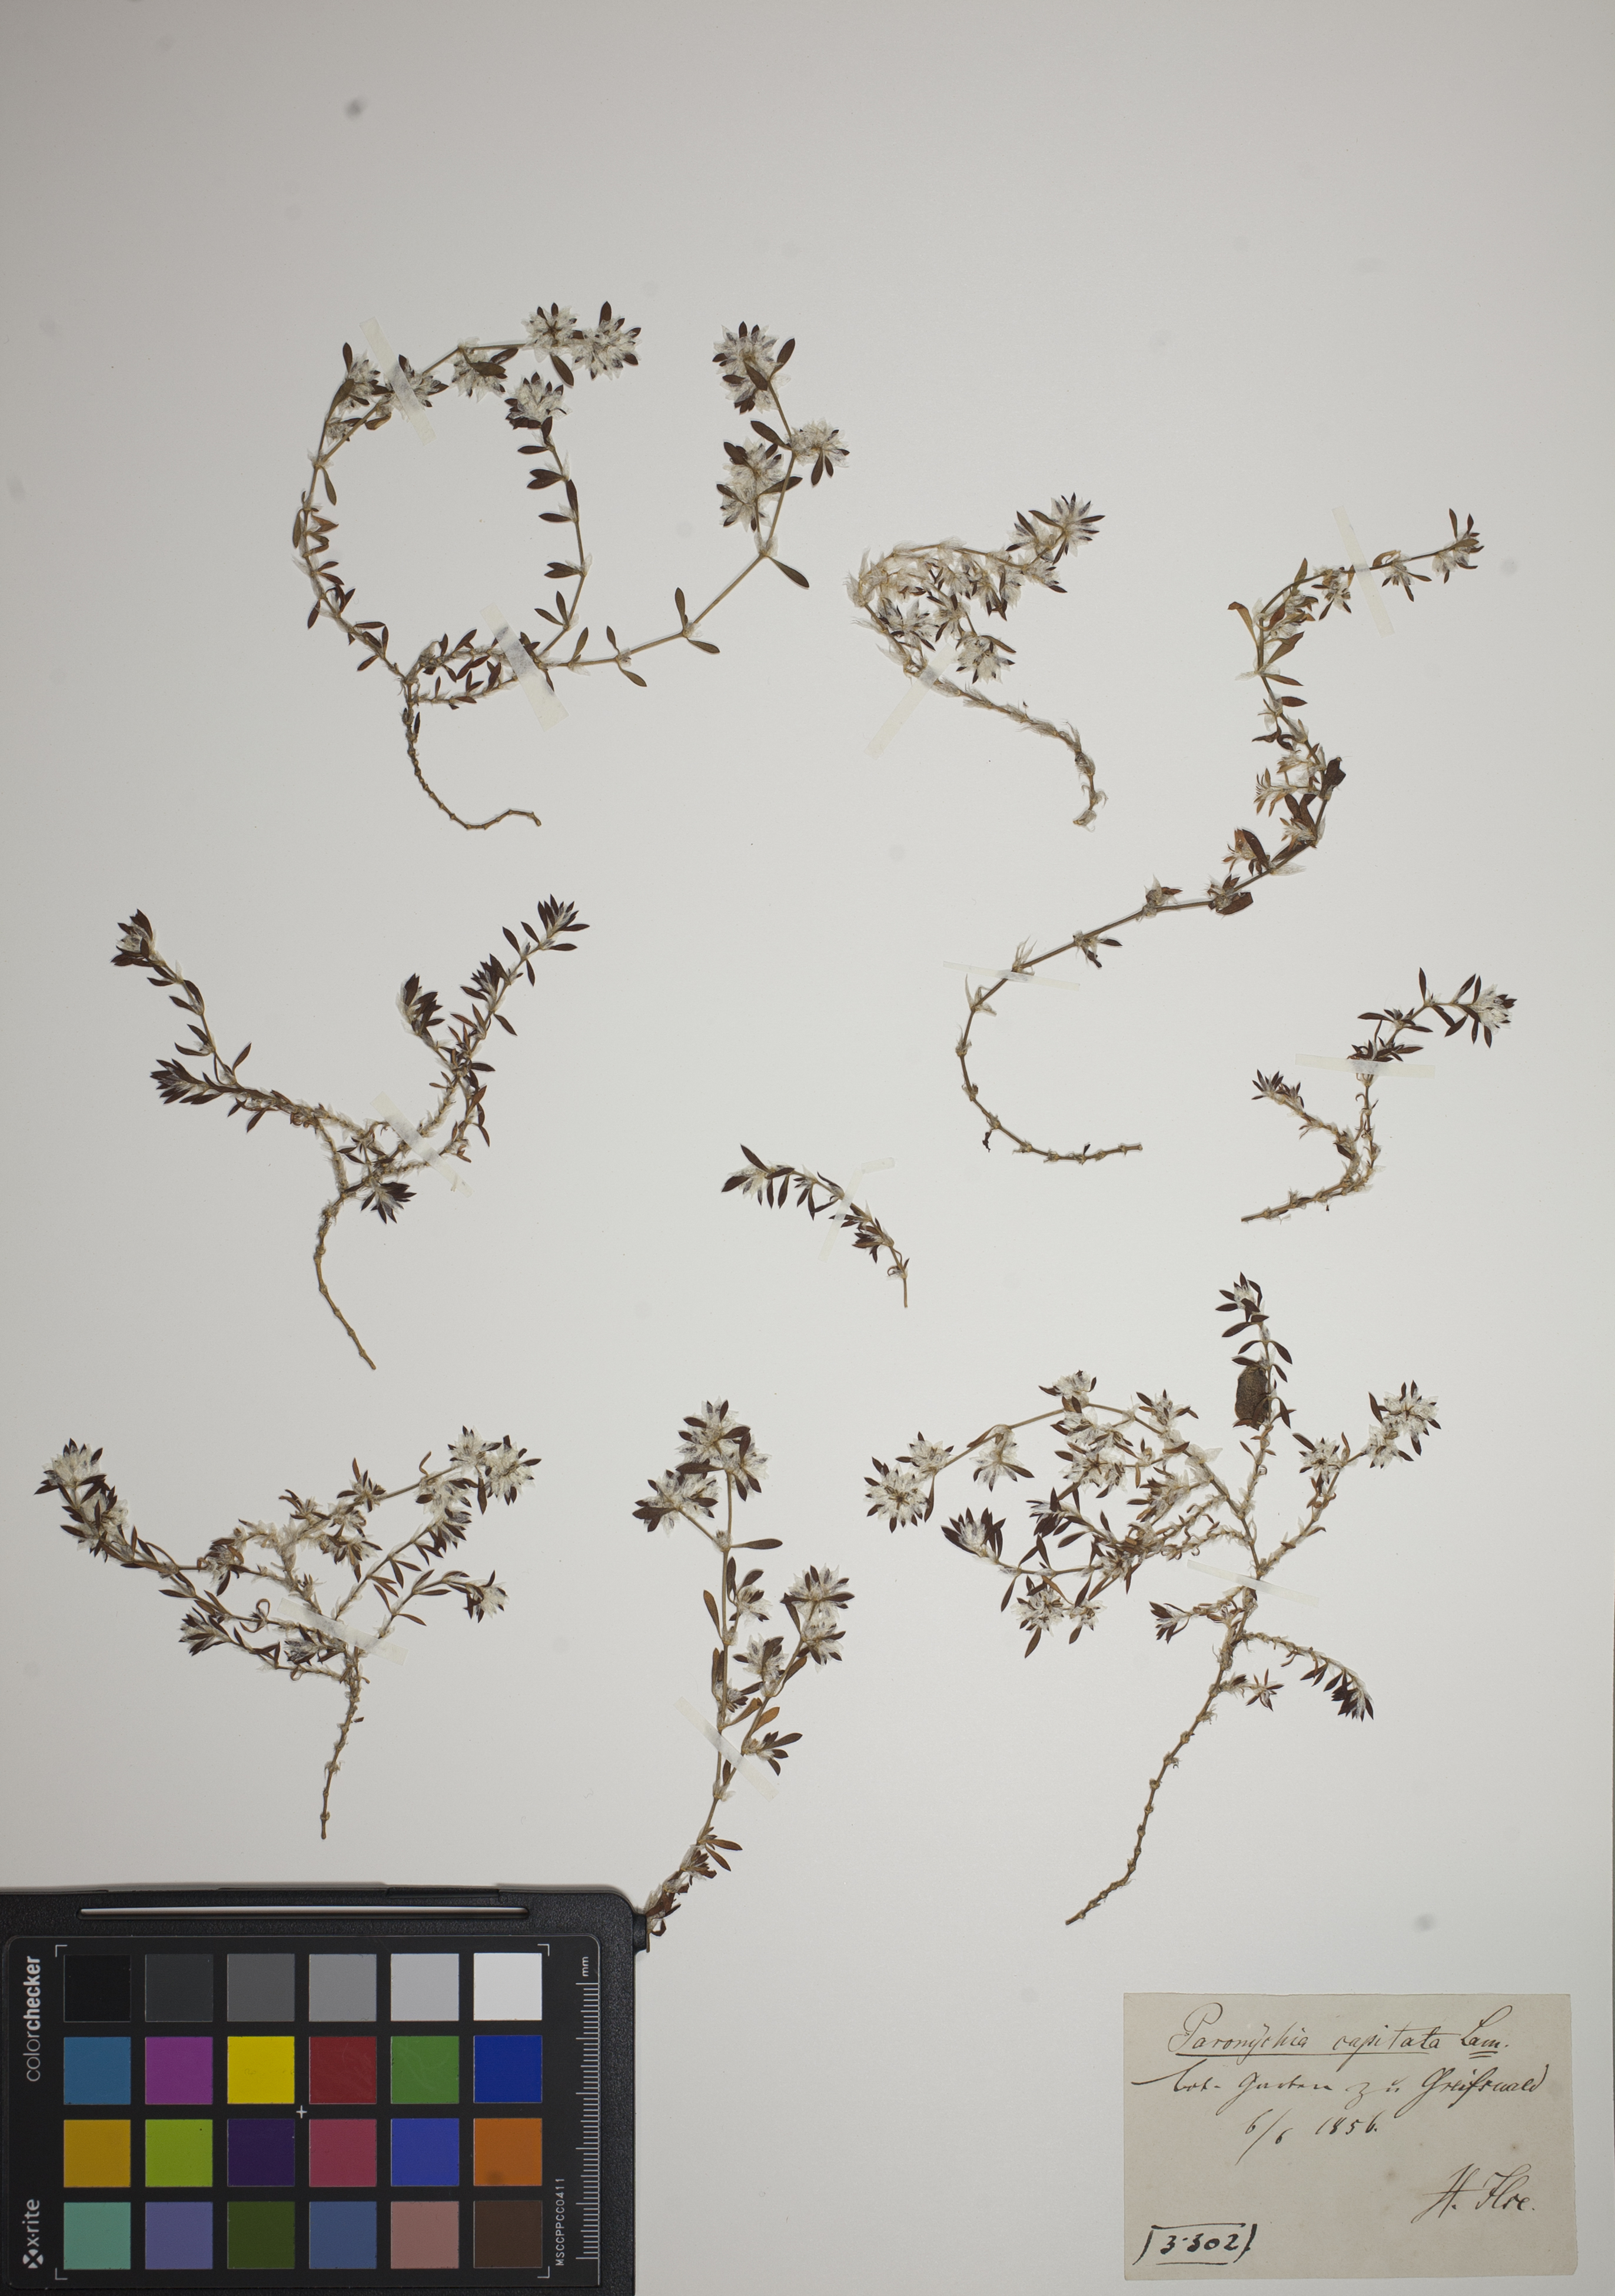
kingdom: Plantae
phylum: Tracheophyta
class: Magnoliopsida
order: Caryophyllales
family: Caryophyllaceae
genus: Paronychia
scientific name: Paronychia capitata
